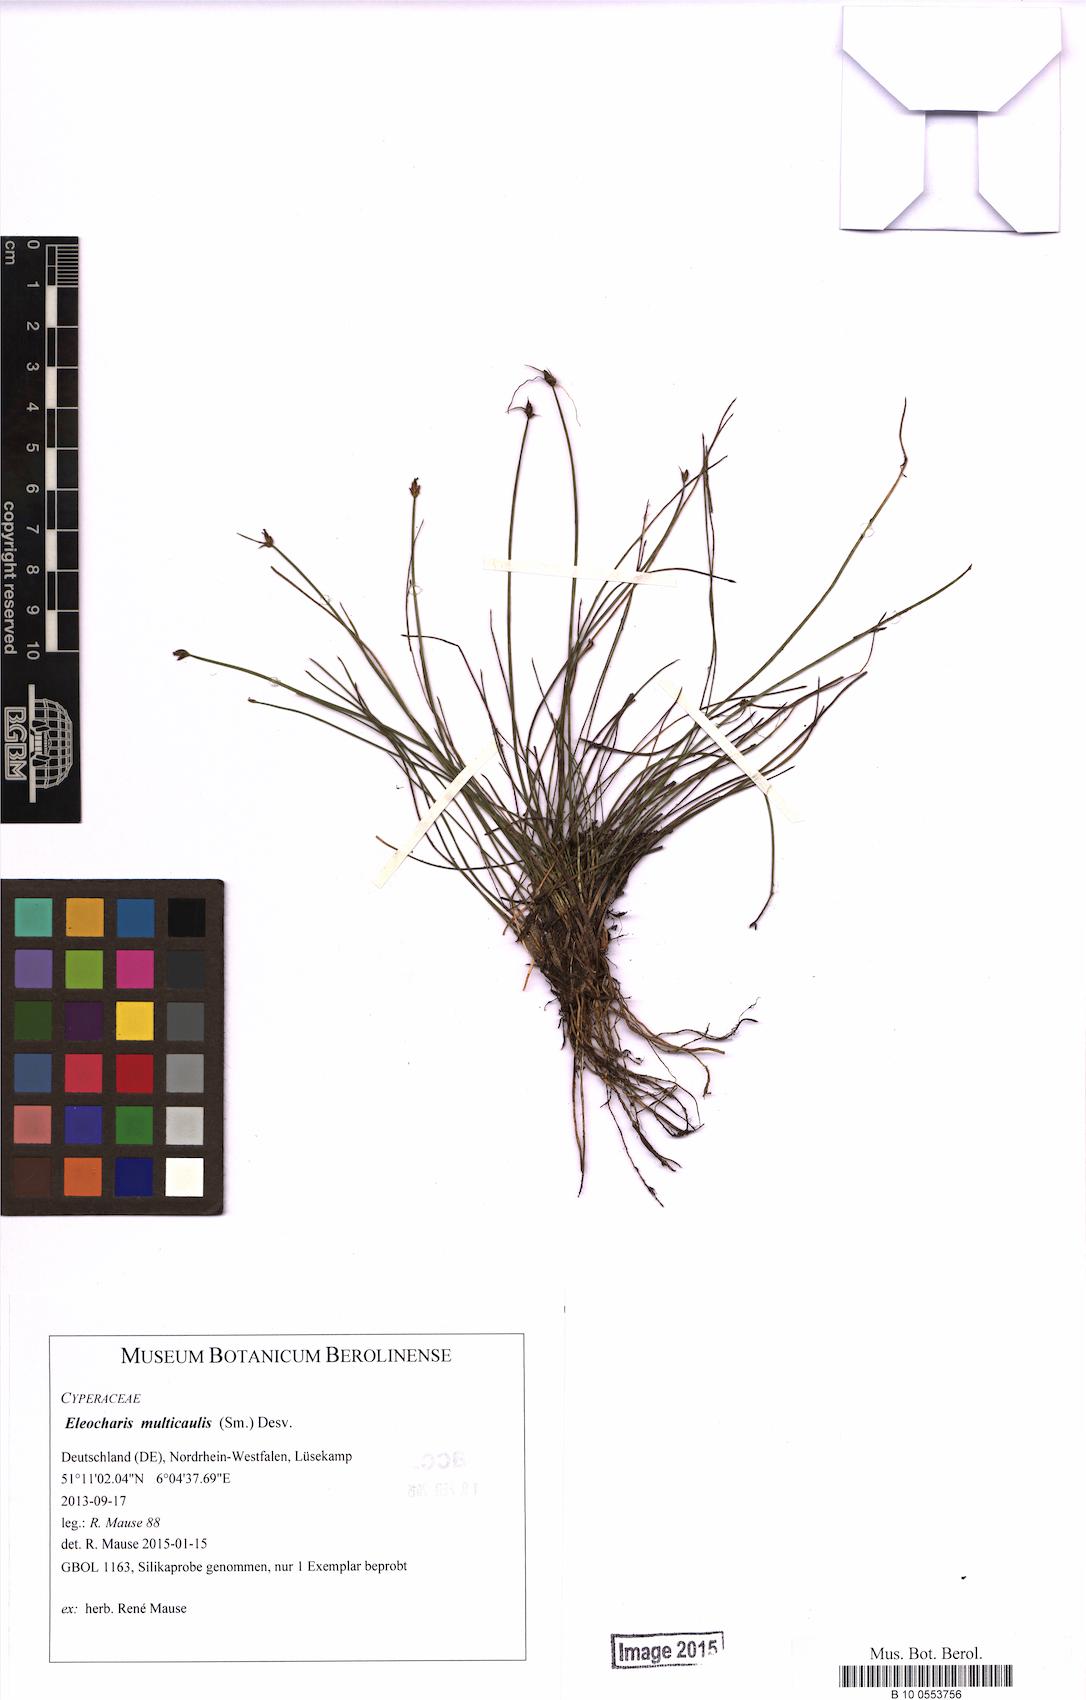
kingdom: Plantae
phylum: Tracheophyta
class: Liliopsida
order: Poales
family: Cyperaceae
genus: Eleocharis
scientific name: Eleocharis multicaulis
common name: Many-stalked spike-rush
